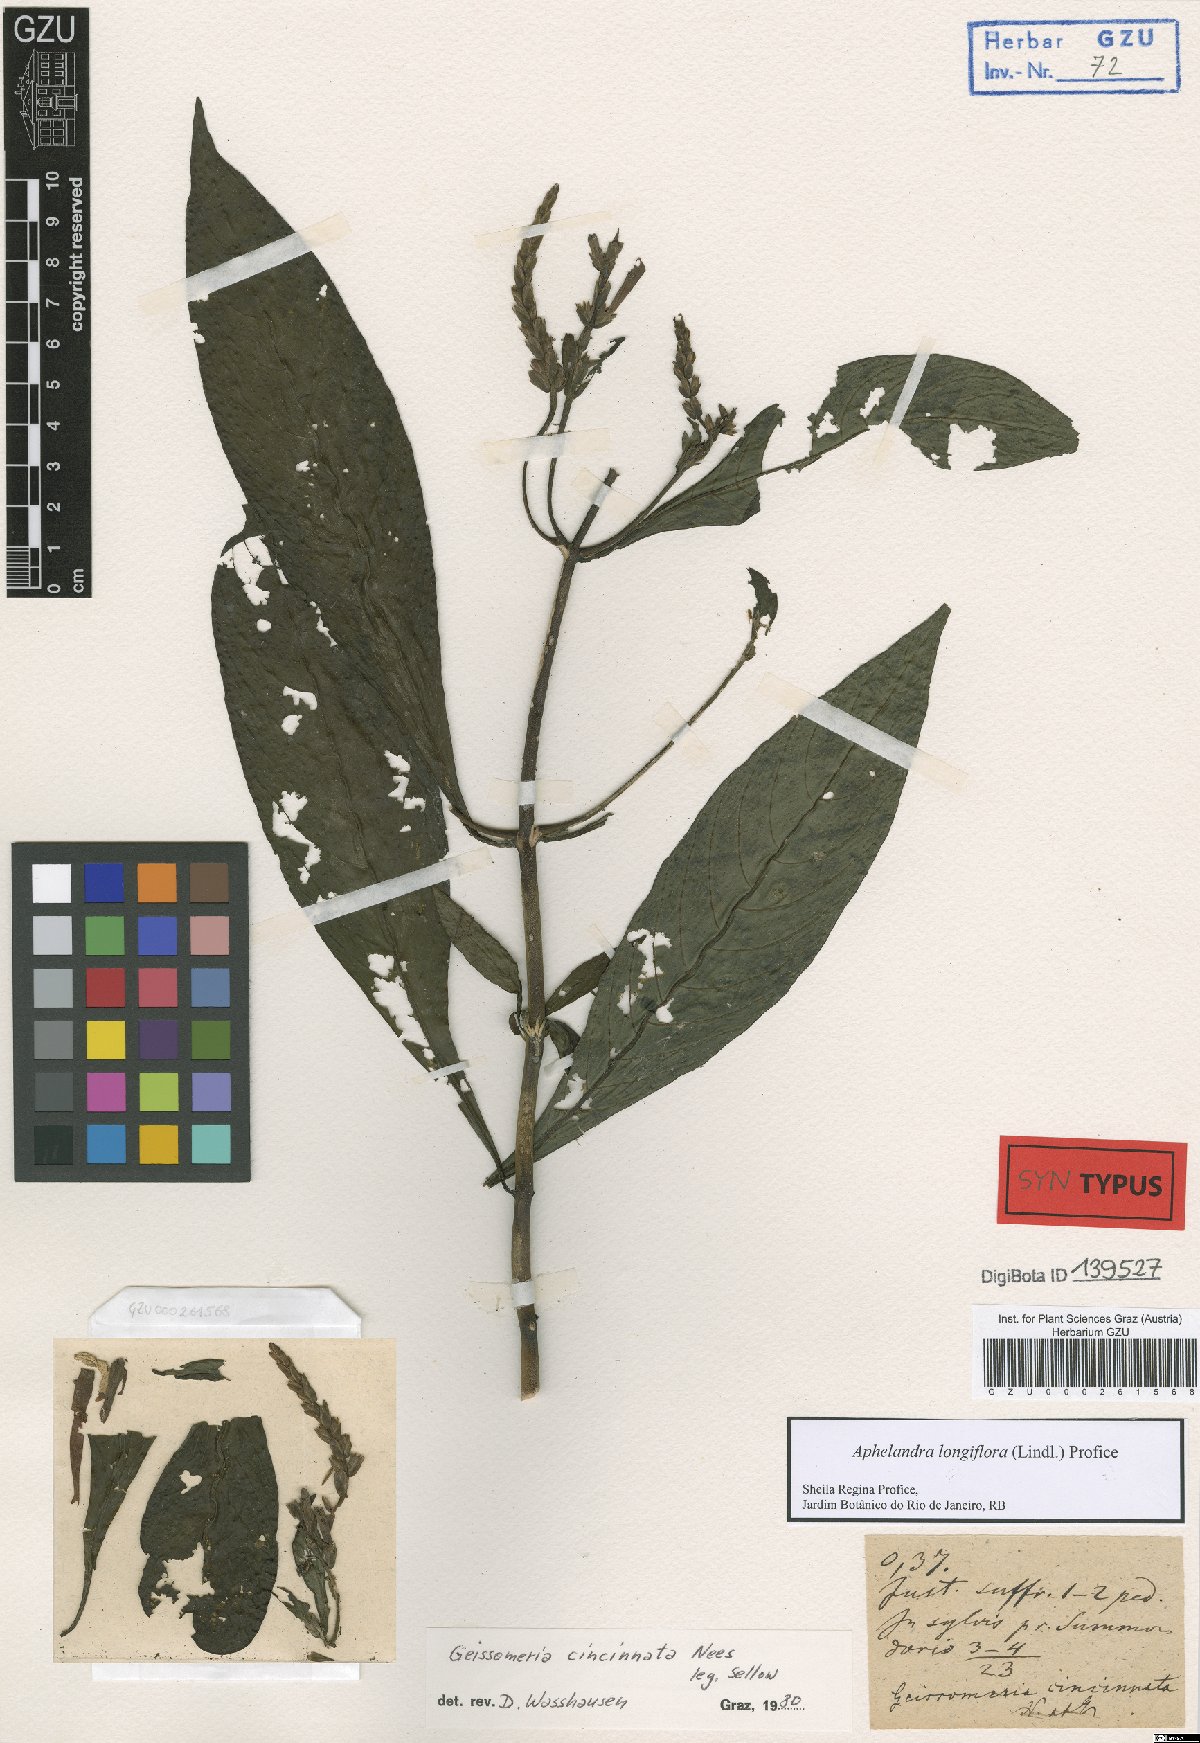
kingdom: Plantae
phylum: Tracheophyta
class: Magnoliopsida
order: Lamiales
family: Acanthaceae
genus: Aphelandra
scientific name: Aphelandra longiflora
